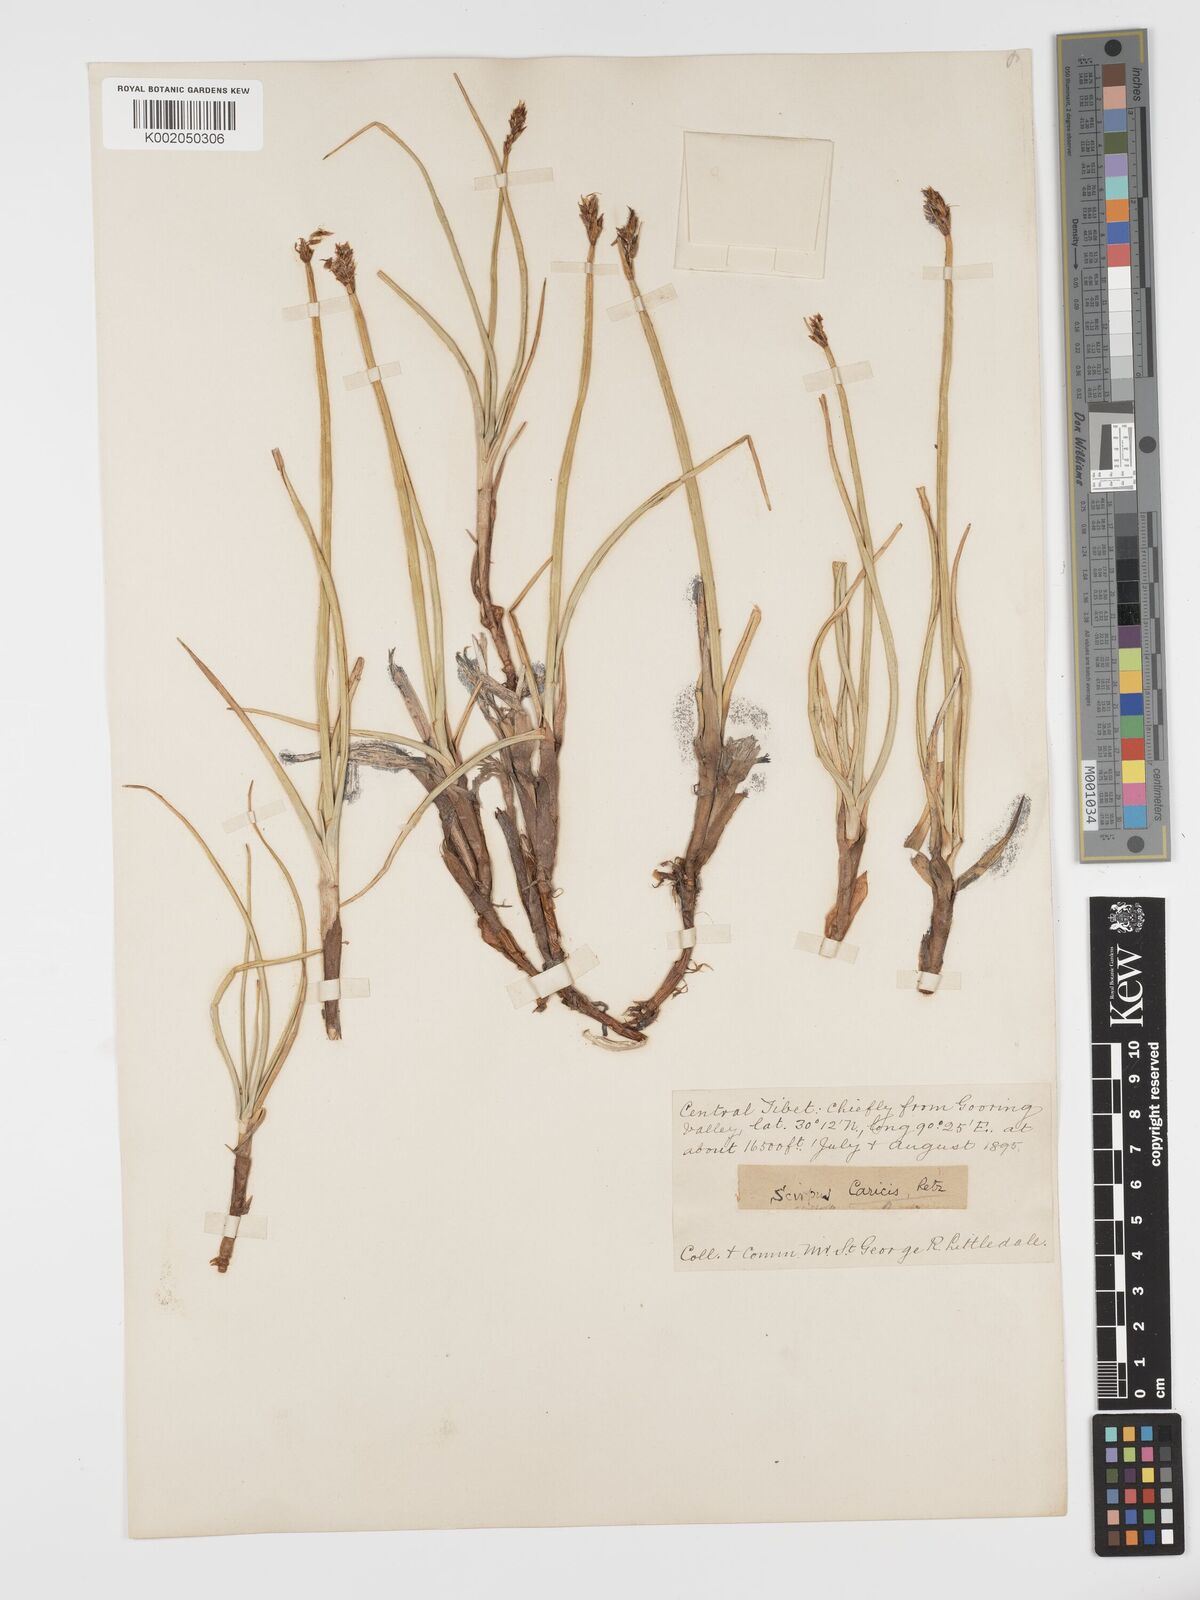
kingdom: Plantae
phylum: Tracheophyta
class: Liliopsida
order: Poales
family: Cyperaceae
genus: Blysmus
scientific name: Blysmus compressus
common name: Flat-sedge
